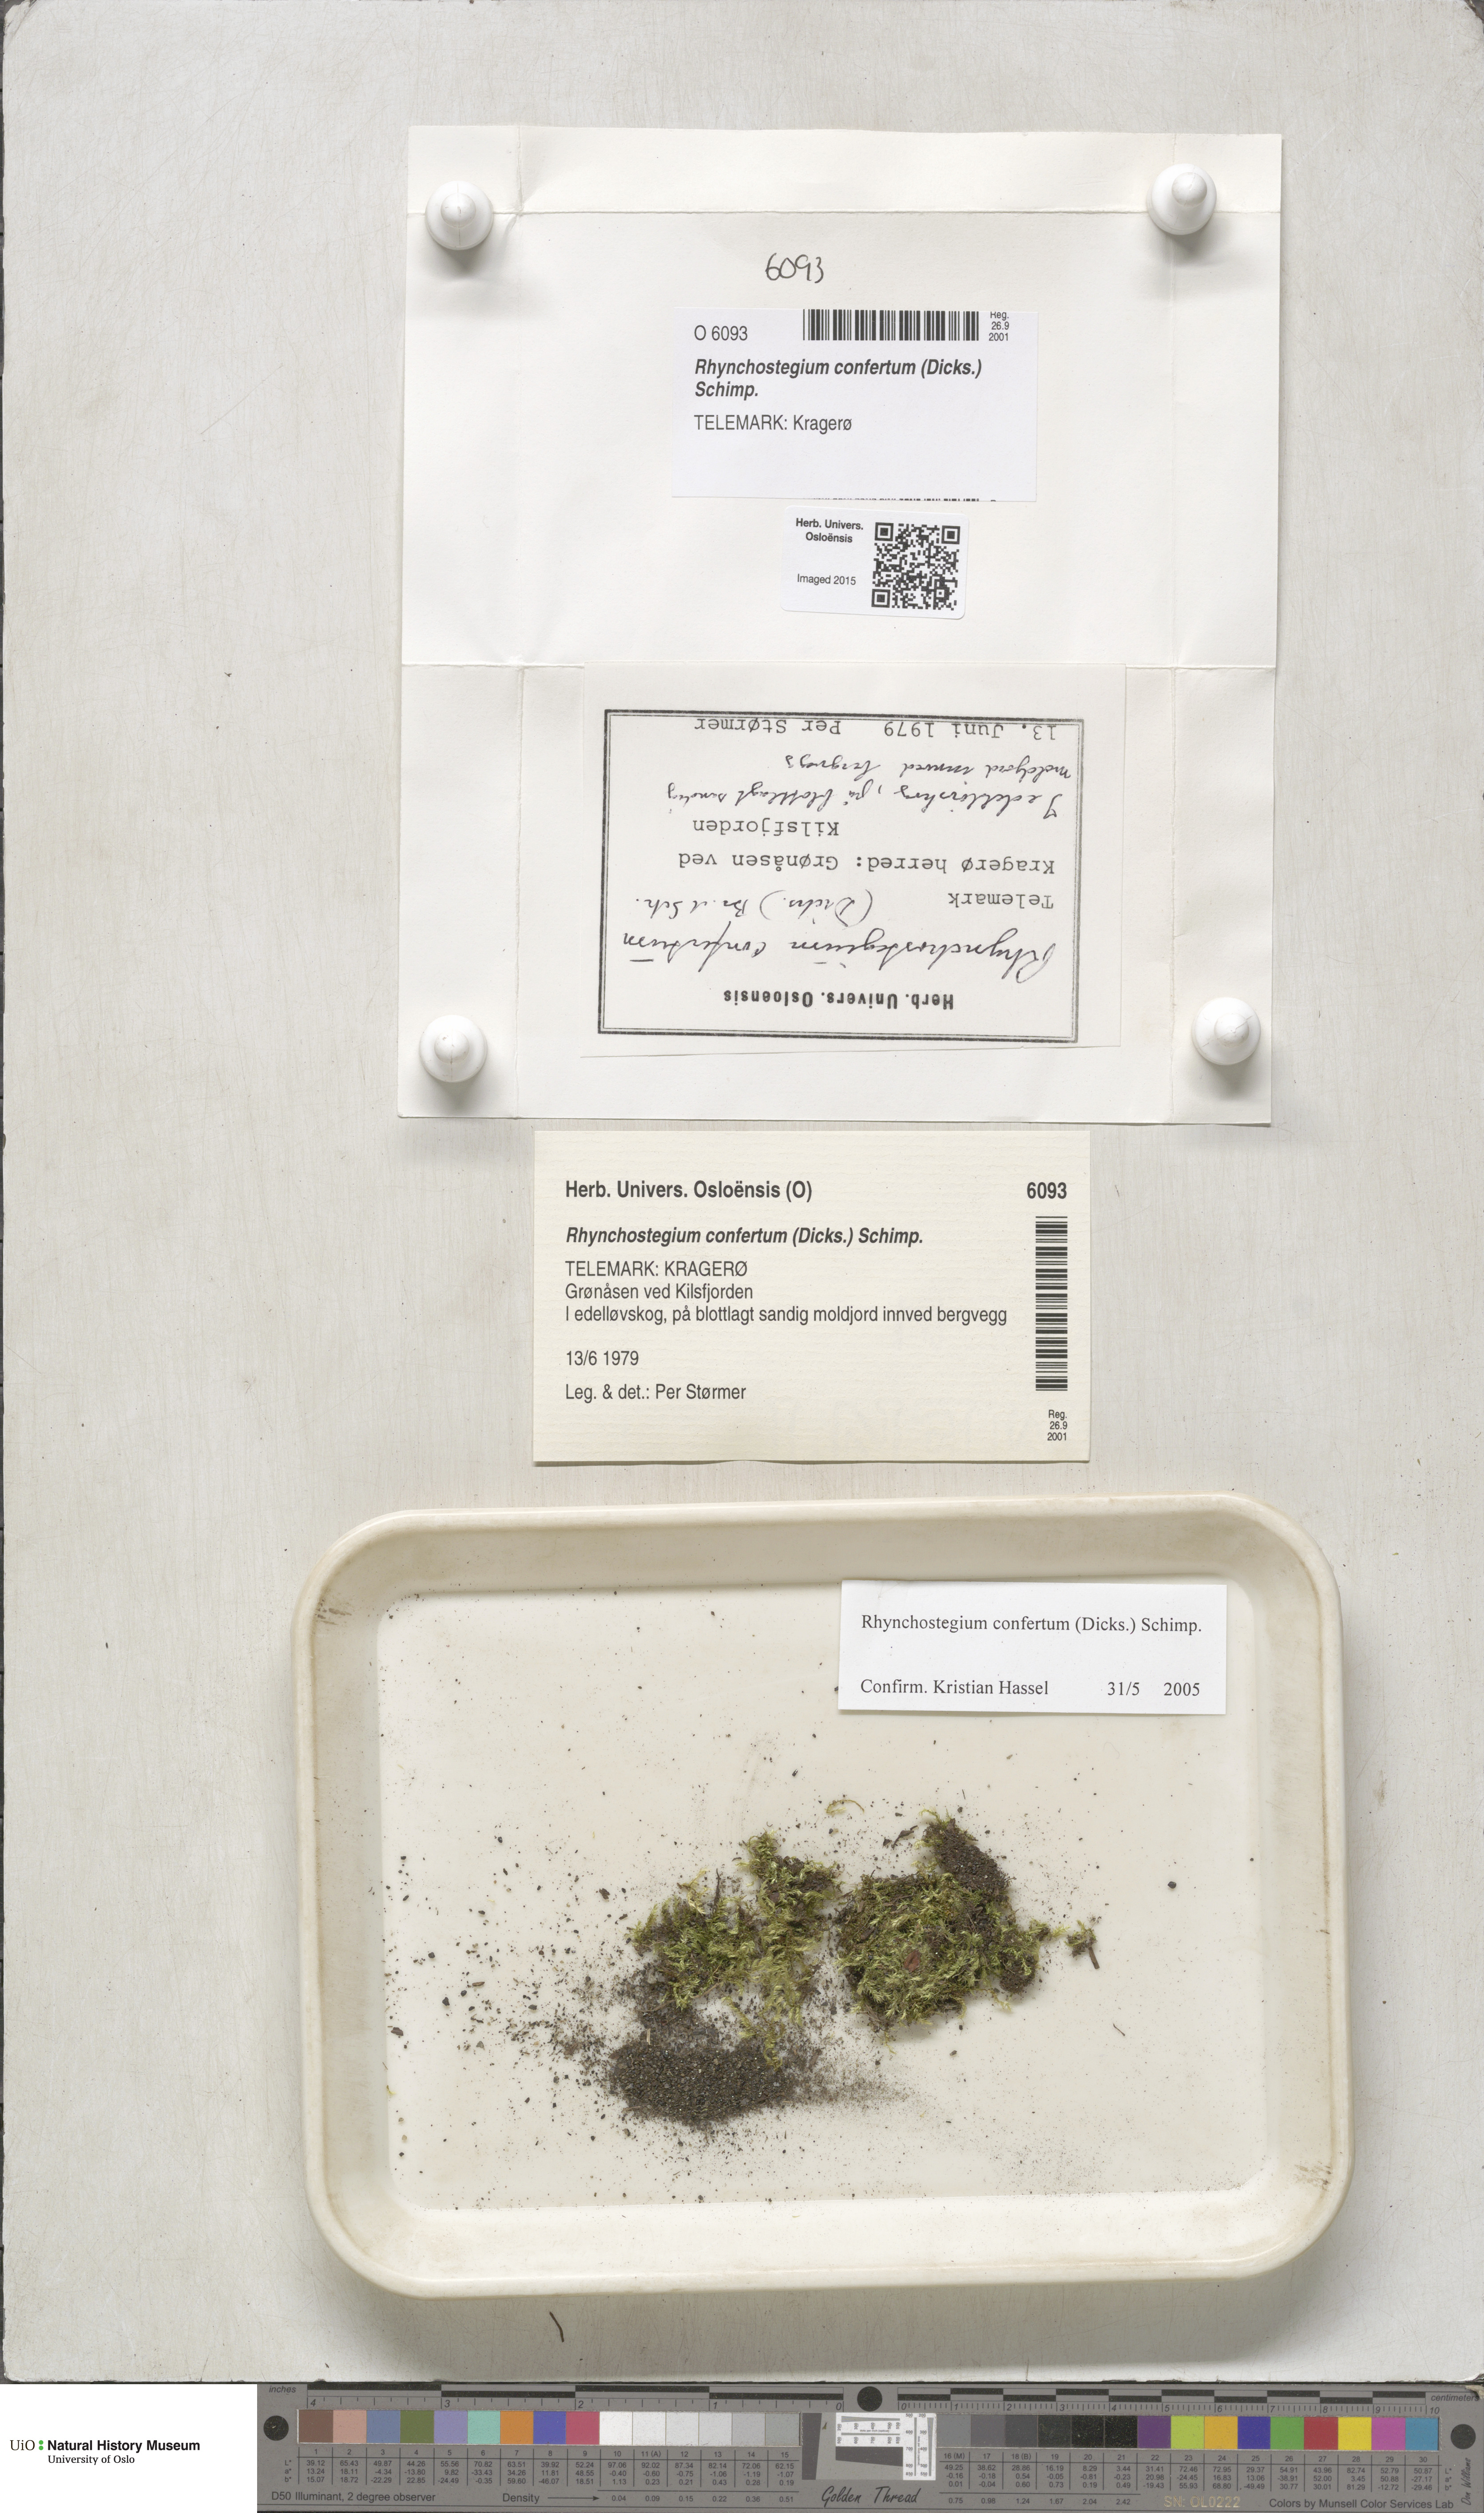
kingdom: Plantae
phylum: Bryophyta
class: Bryopsida
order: Hypnales
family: Brachytheciaceae
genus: Rhynchostegium
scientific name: Rhynchostegium confertum
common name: Clustered feather-moss
